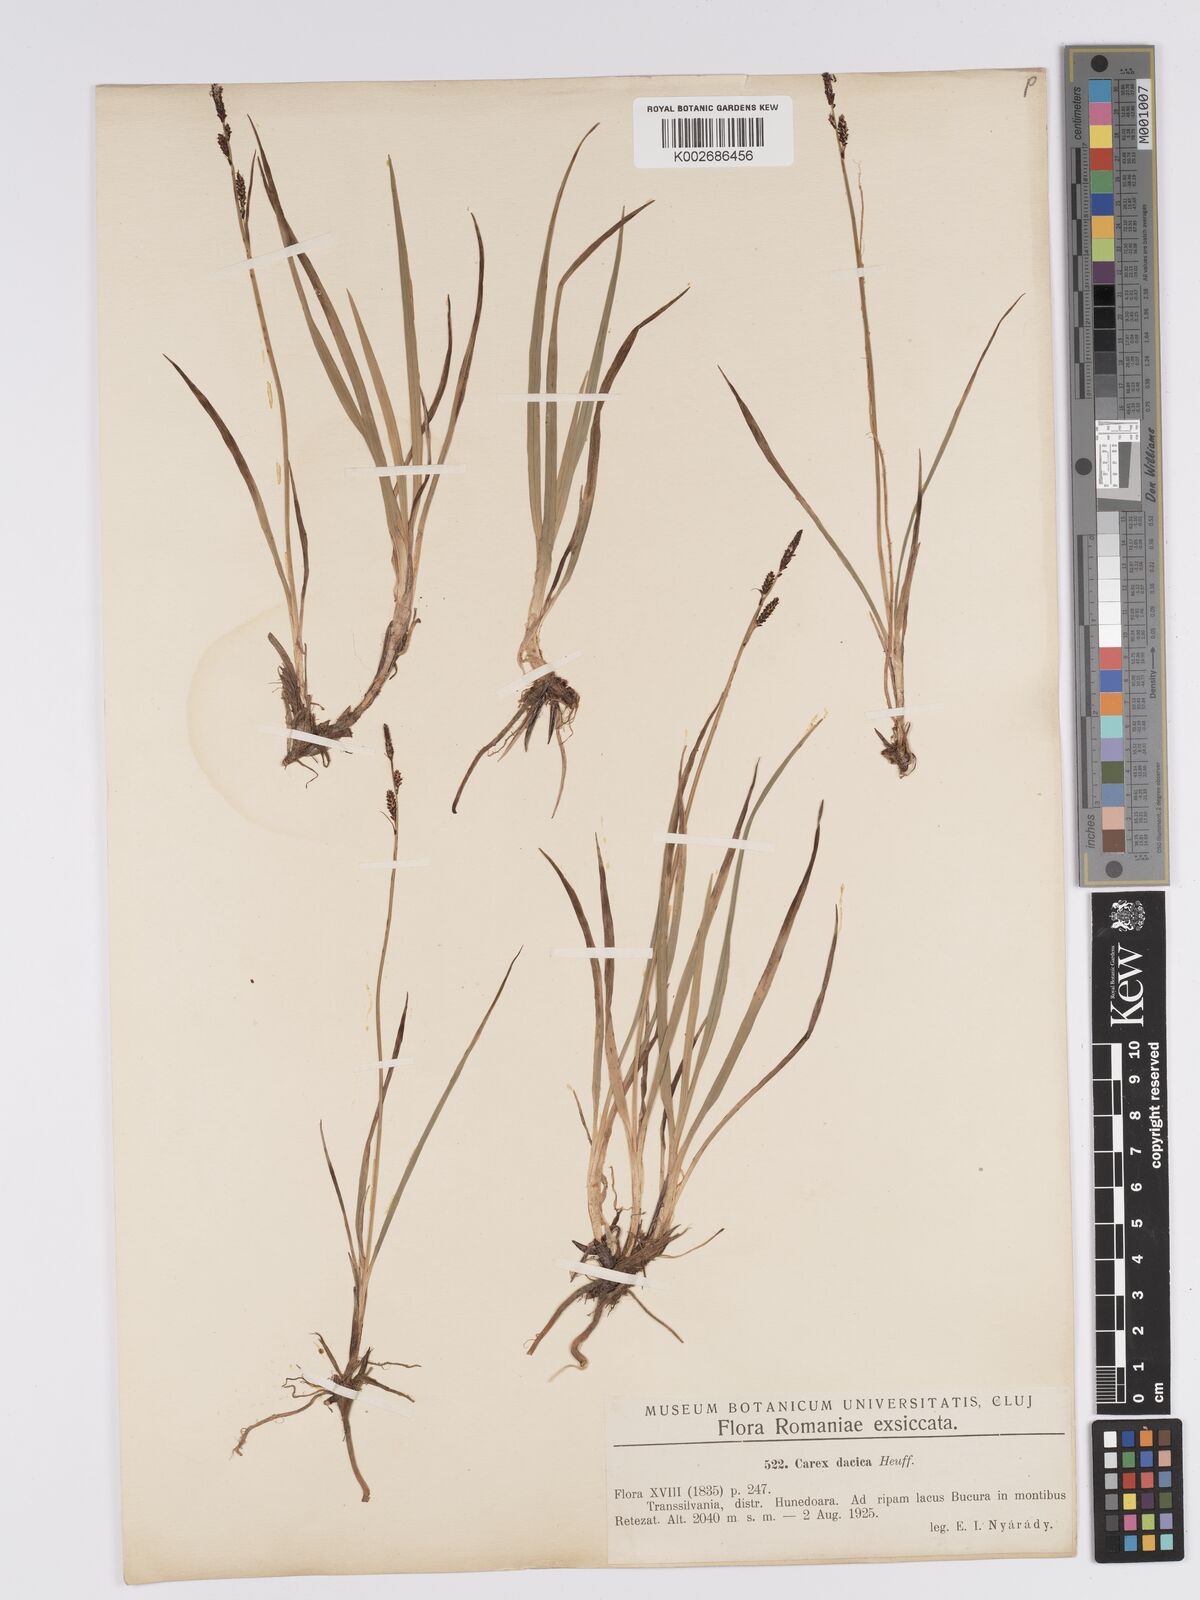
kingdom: Plantae
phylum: Tracheophyta
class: Liliopsida
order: Poales
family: Cyperaceae
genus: Carex
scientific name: Carex bigelowii
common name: Stiff sedge
